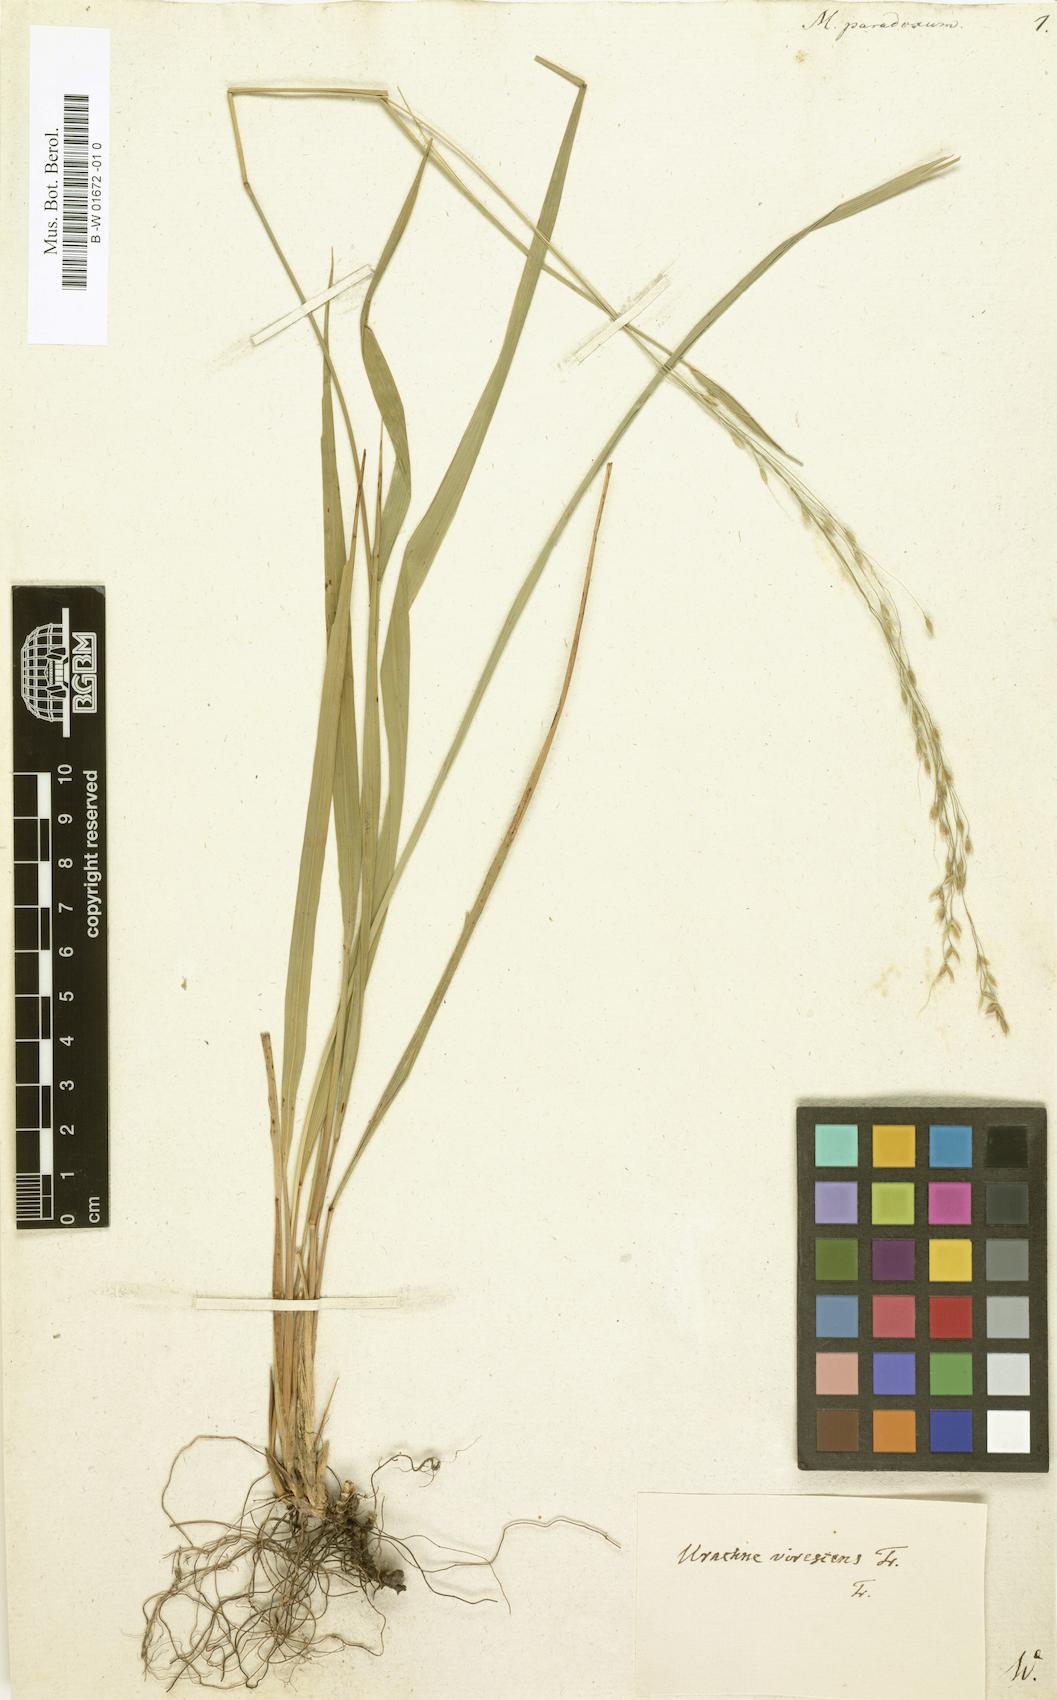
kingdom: Plantae
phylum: Tracheophyta
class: Liliopsida
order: Poales
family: Poaceae
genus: Achnatherum
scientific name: Achnatherum paradoxum
